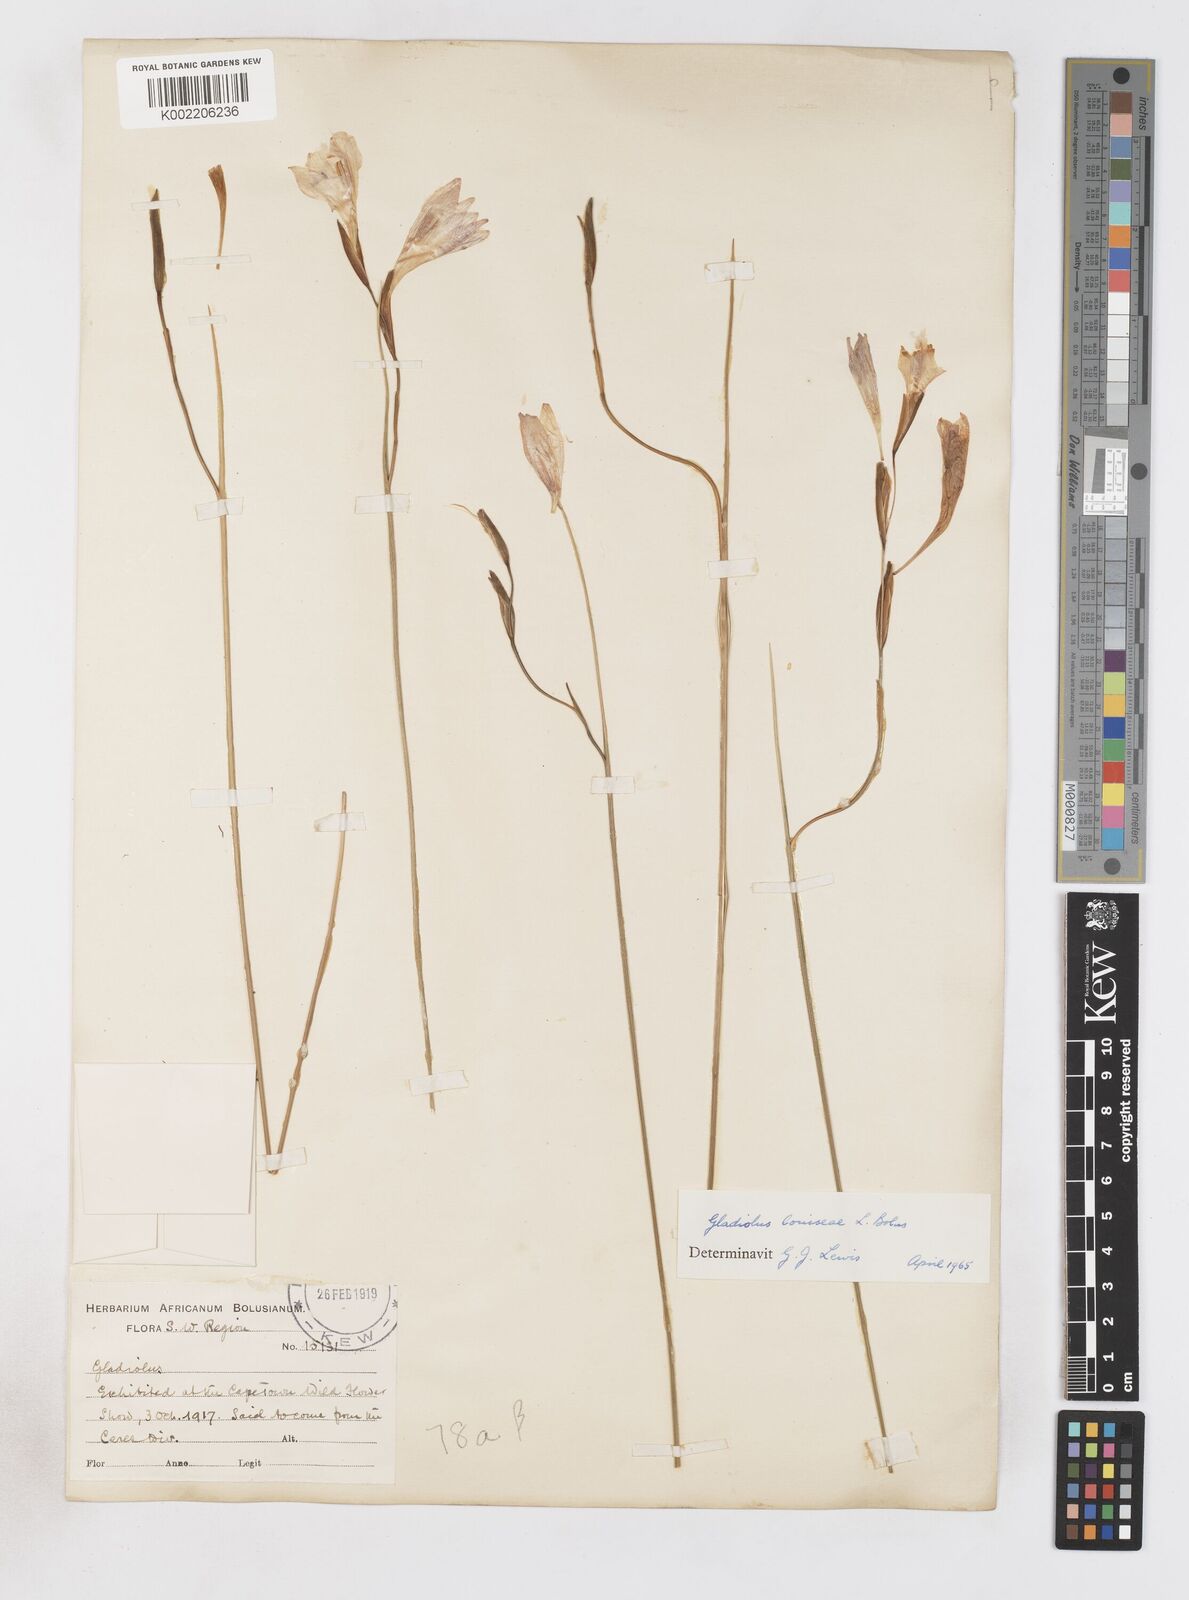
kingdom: Plantae
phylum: Tracheophyta
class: Liliopsida
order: Asparagales
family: Iridaceae
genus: Gladiolus
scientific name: Gladiolus inflatus
